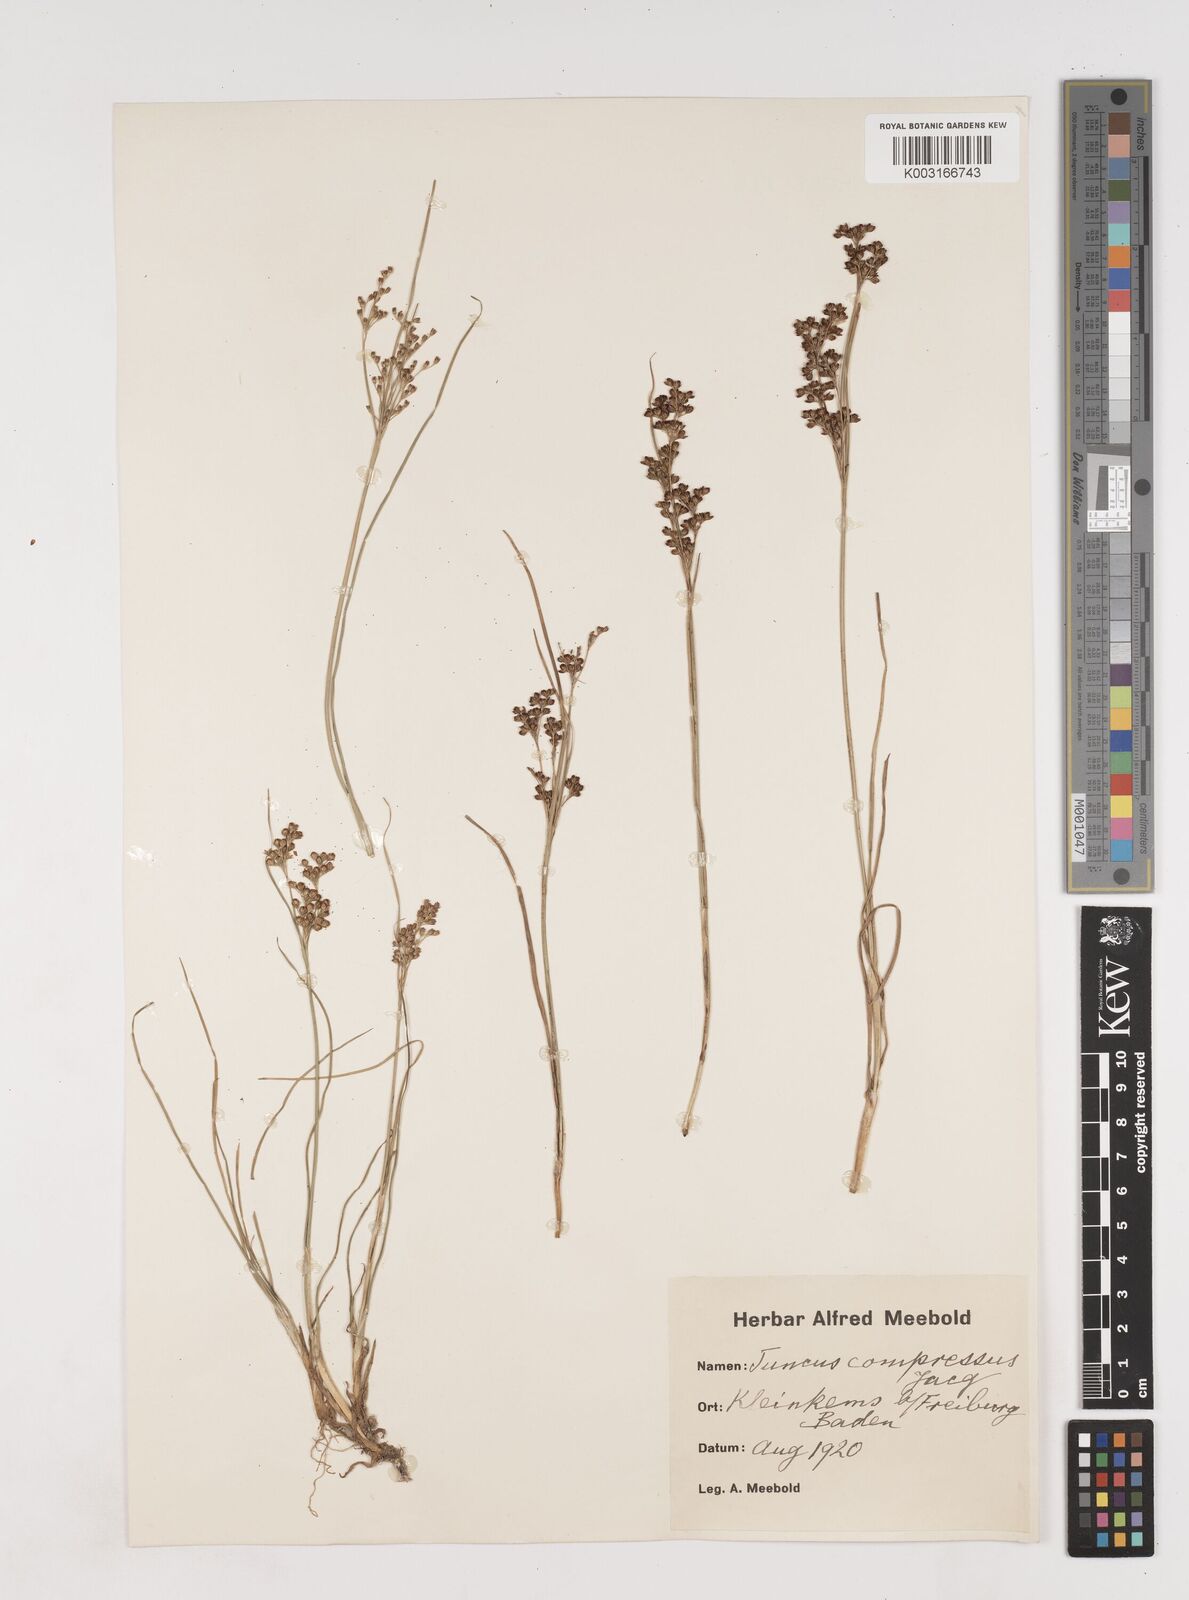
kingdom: Plantae
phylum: Tracheophyta
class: Liliopsida
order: Poales
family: Juncaceae
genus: Juncus
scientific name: Juncus
